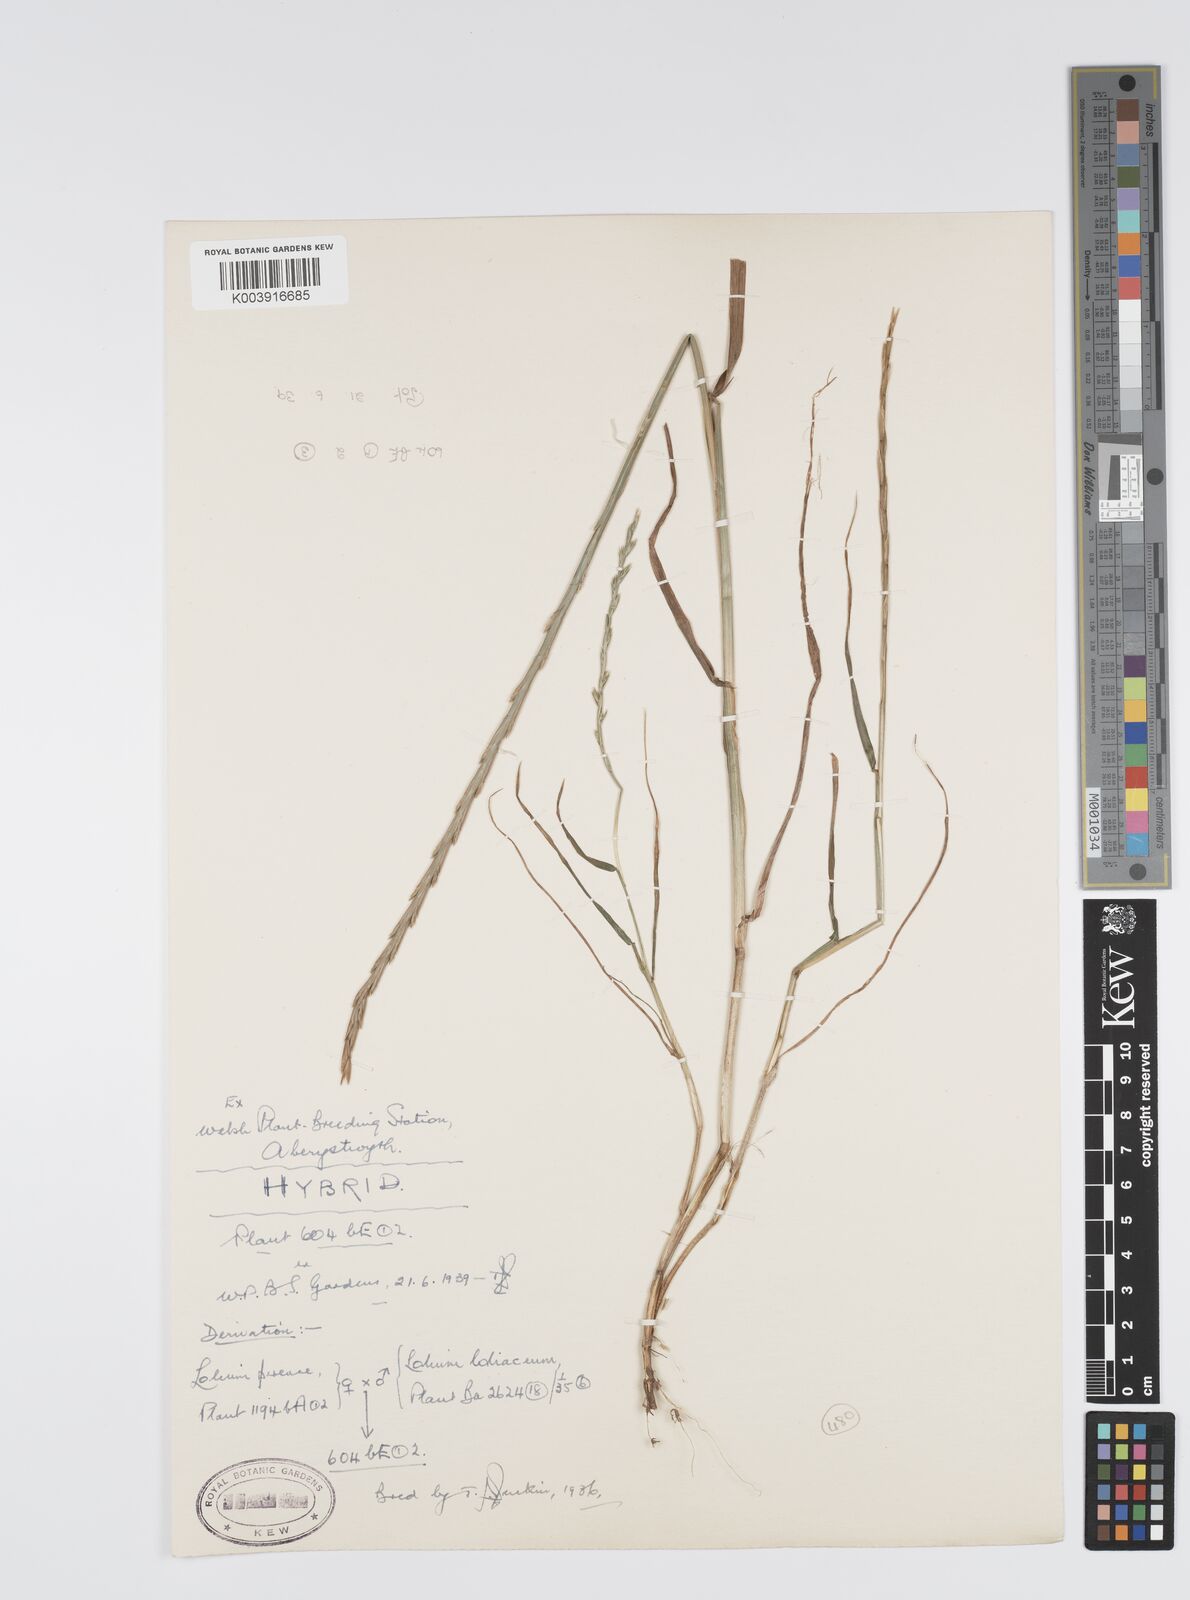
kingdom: Plantae
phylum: Tracheophyta
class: Liliopsida
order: Poales
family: Poaceae
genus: Lolium
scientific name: Lolium perenne
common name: Perennial ryegrass
